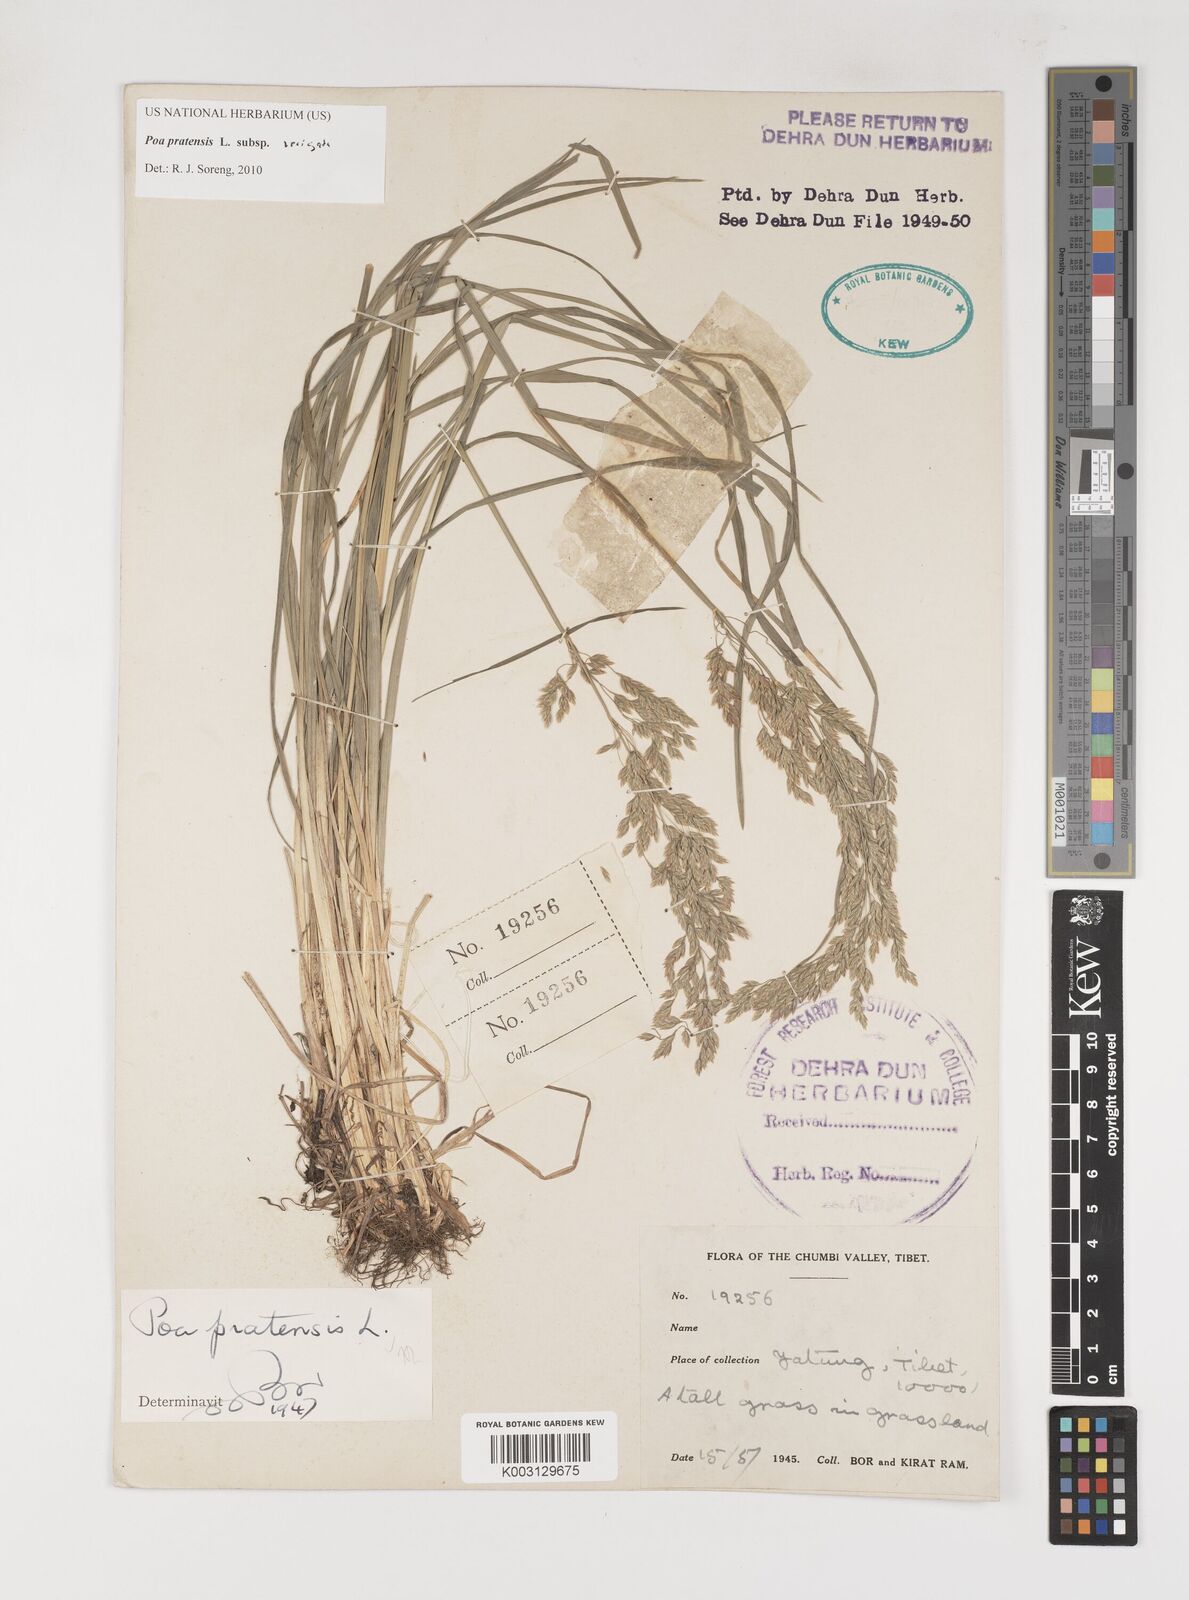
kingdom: Plantae
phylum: Tracheophyta
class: Liliopsida
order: Poales
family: Poaceae
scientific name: Poaceae
